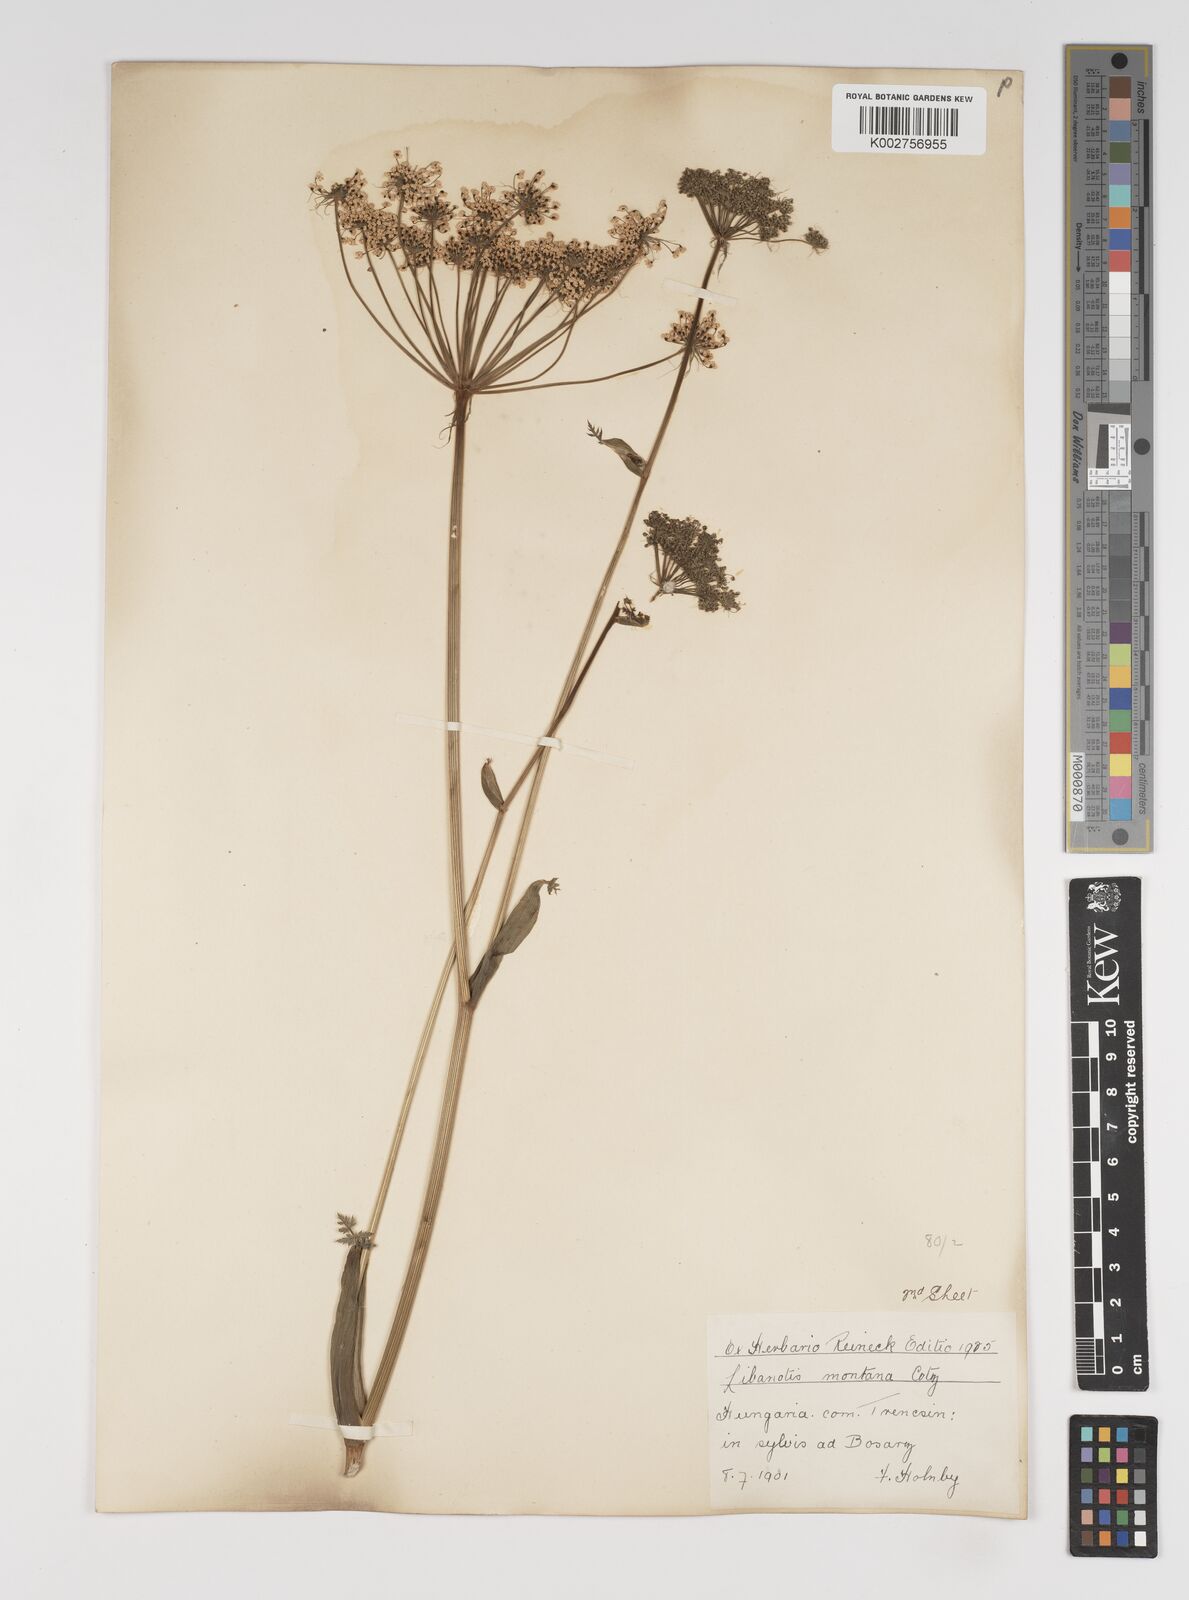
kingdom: Plantae
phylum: Tracheophyta
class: Magnoliopsida
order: Apiales
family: Apiaceae
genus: Seseli
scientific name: Seseli libanotis
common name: Mooncarrot
